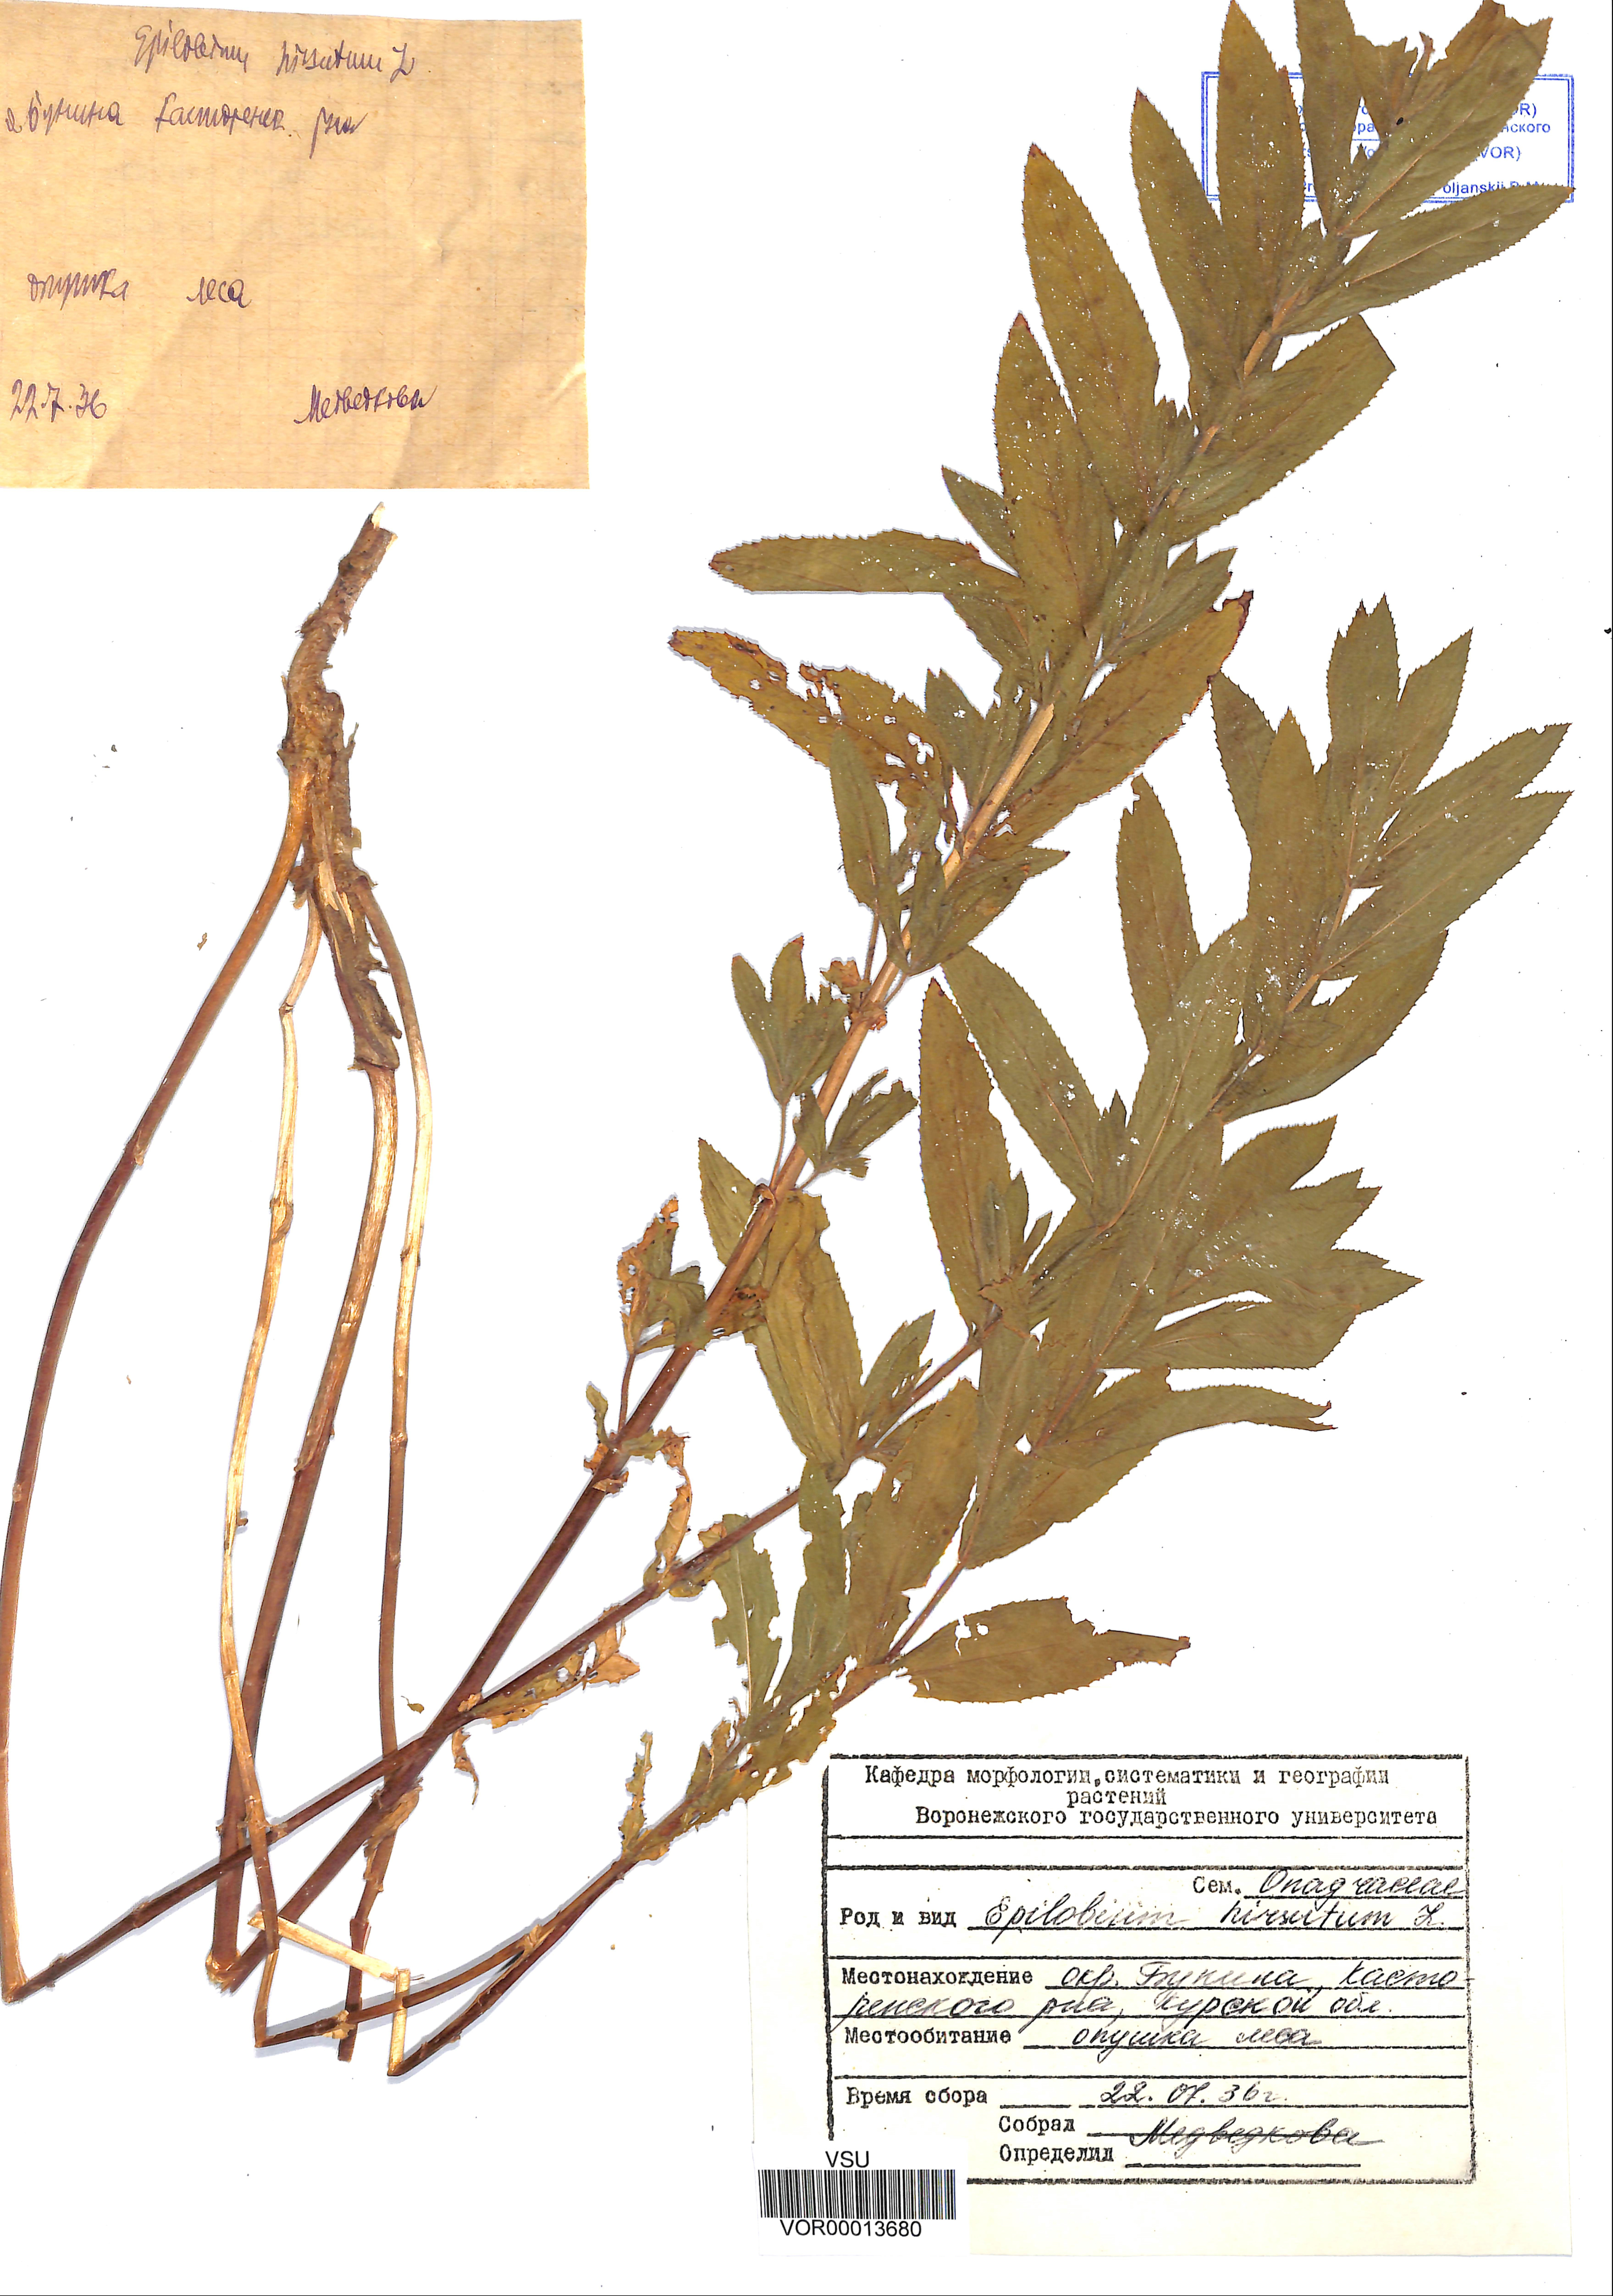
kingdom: Plantae
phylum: Tracheophyta
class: Magnoliopsida
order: Myrtales
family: Onagraceae
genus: Epilobium
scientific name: Epilobium hirsutum
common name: Great willowherb
